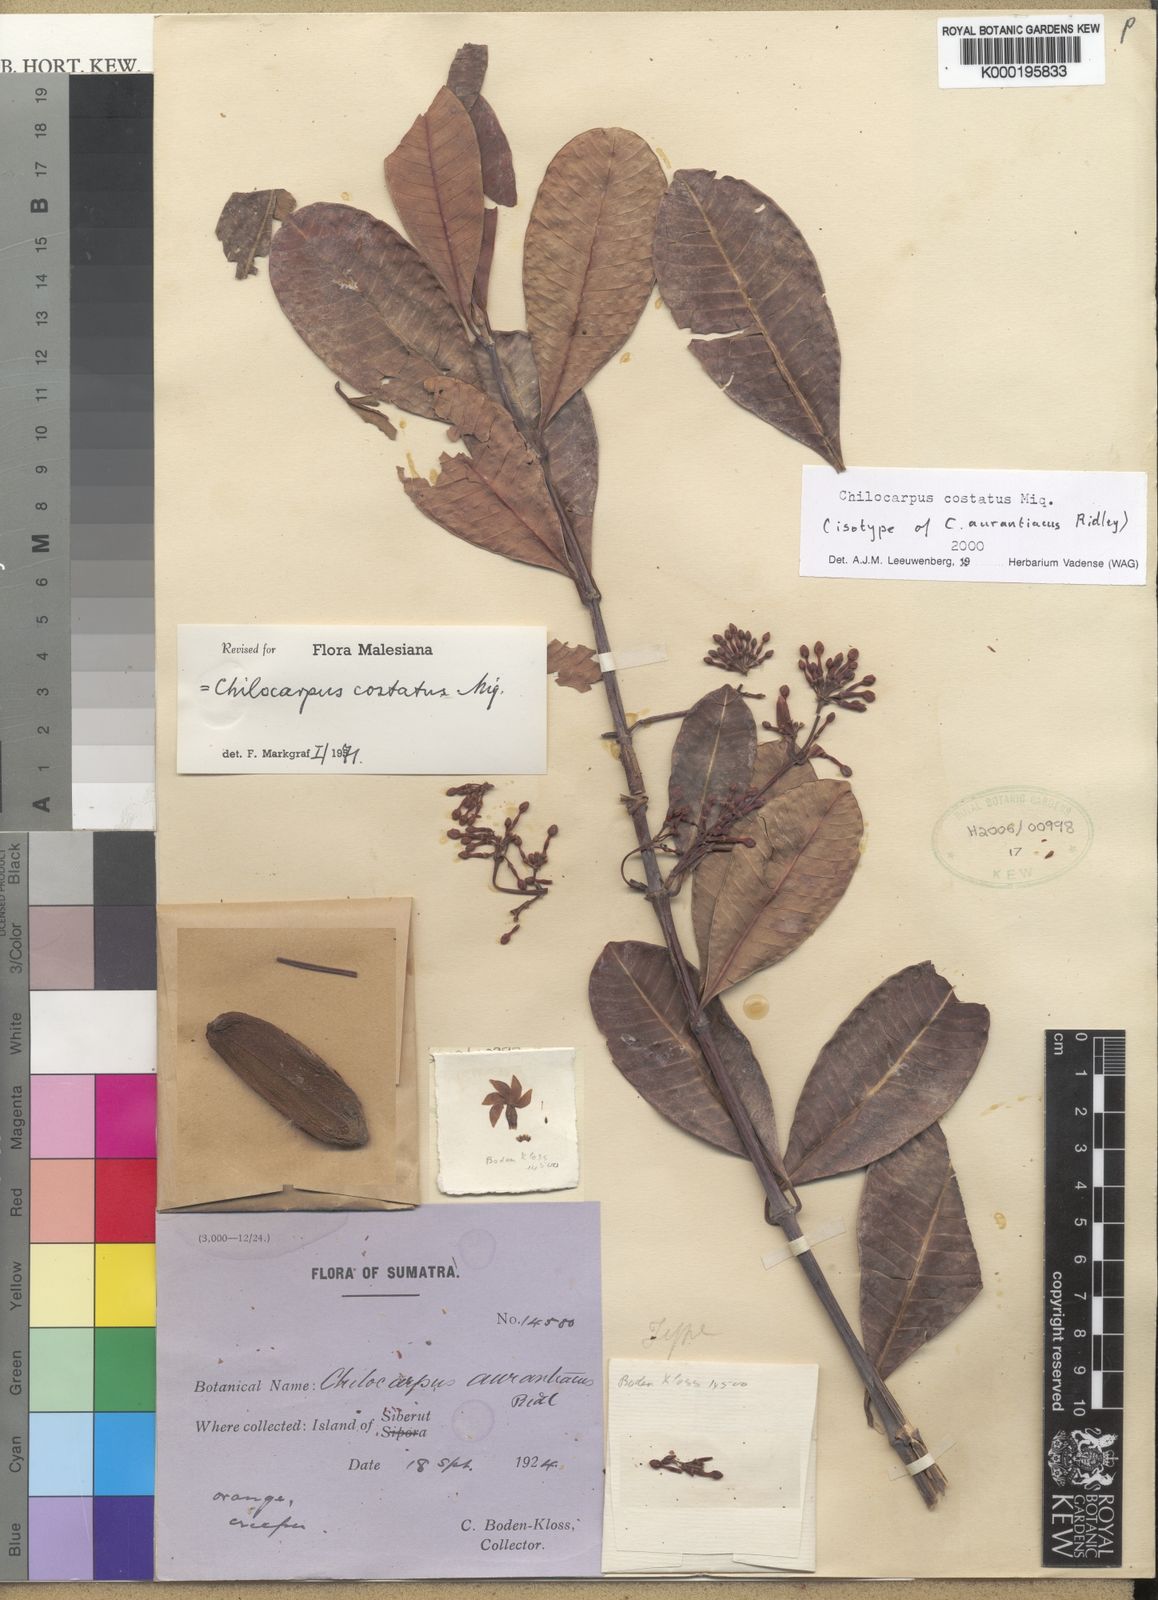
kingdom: Plantae
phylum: Tracheophyta
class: Magnoliopsida
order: Gentianales
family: Apocynaceae
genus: Chilocarpus
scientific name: Chilocarpus costatus
